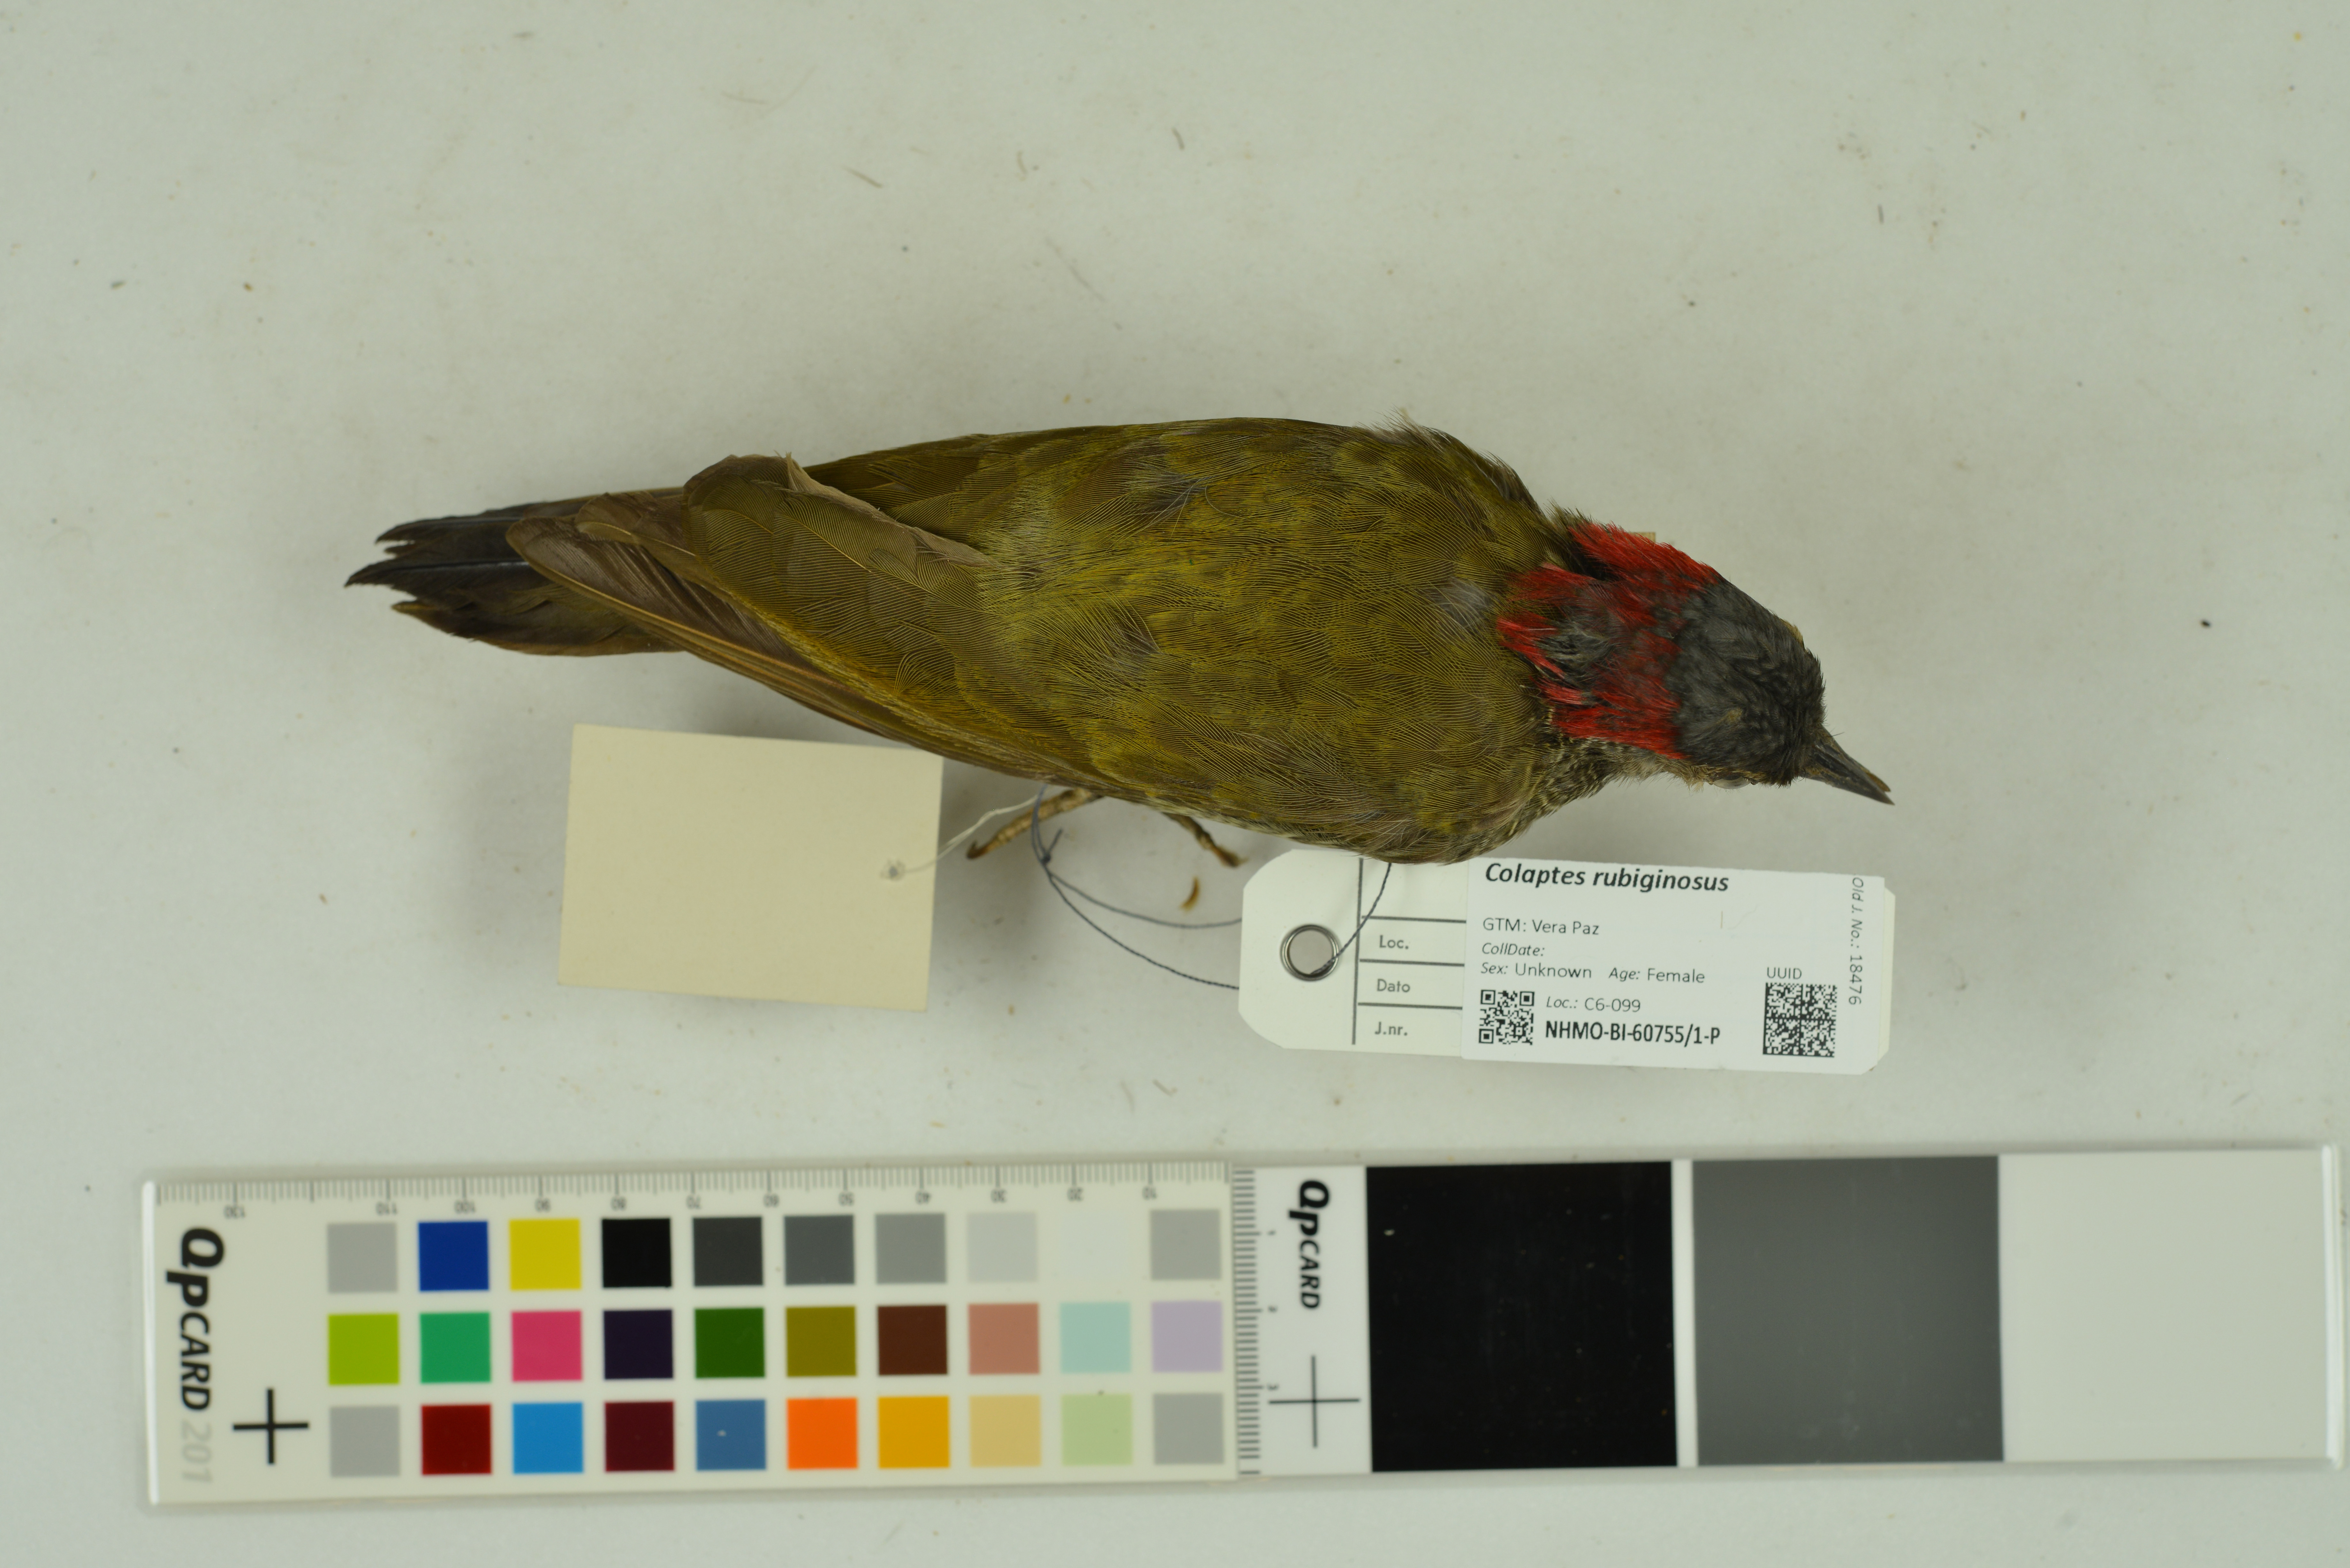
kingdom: Animalia
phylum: Chordata
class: Aves
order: Piciformes
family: Picidae
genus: Colaptes
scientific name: Colaptes rubiginosus
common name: Golden-olive woodpecker
